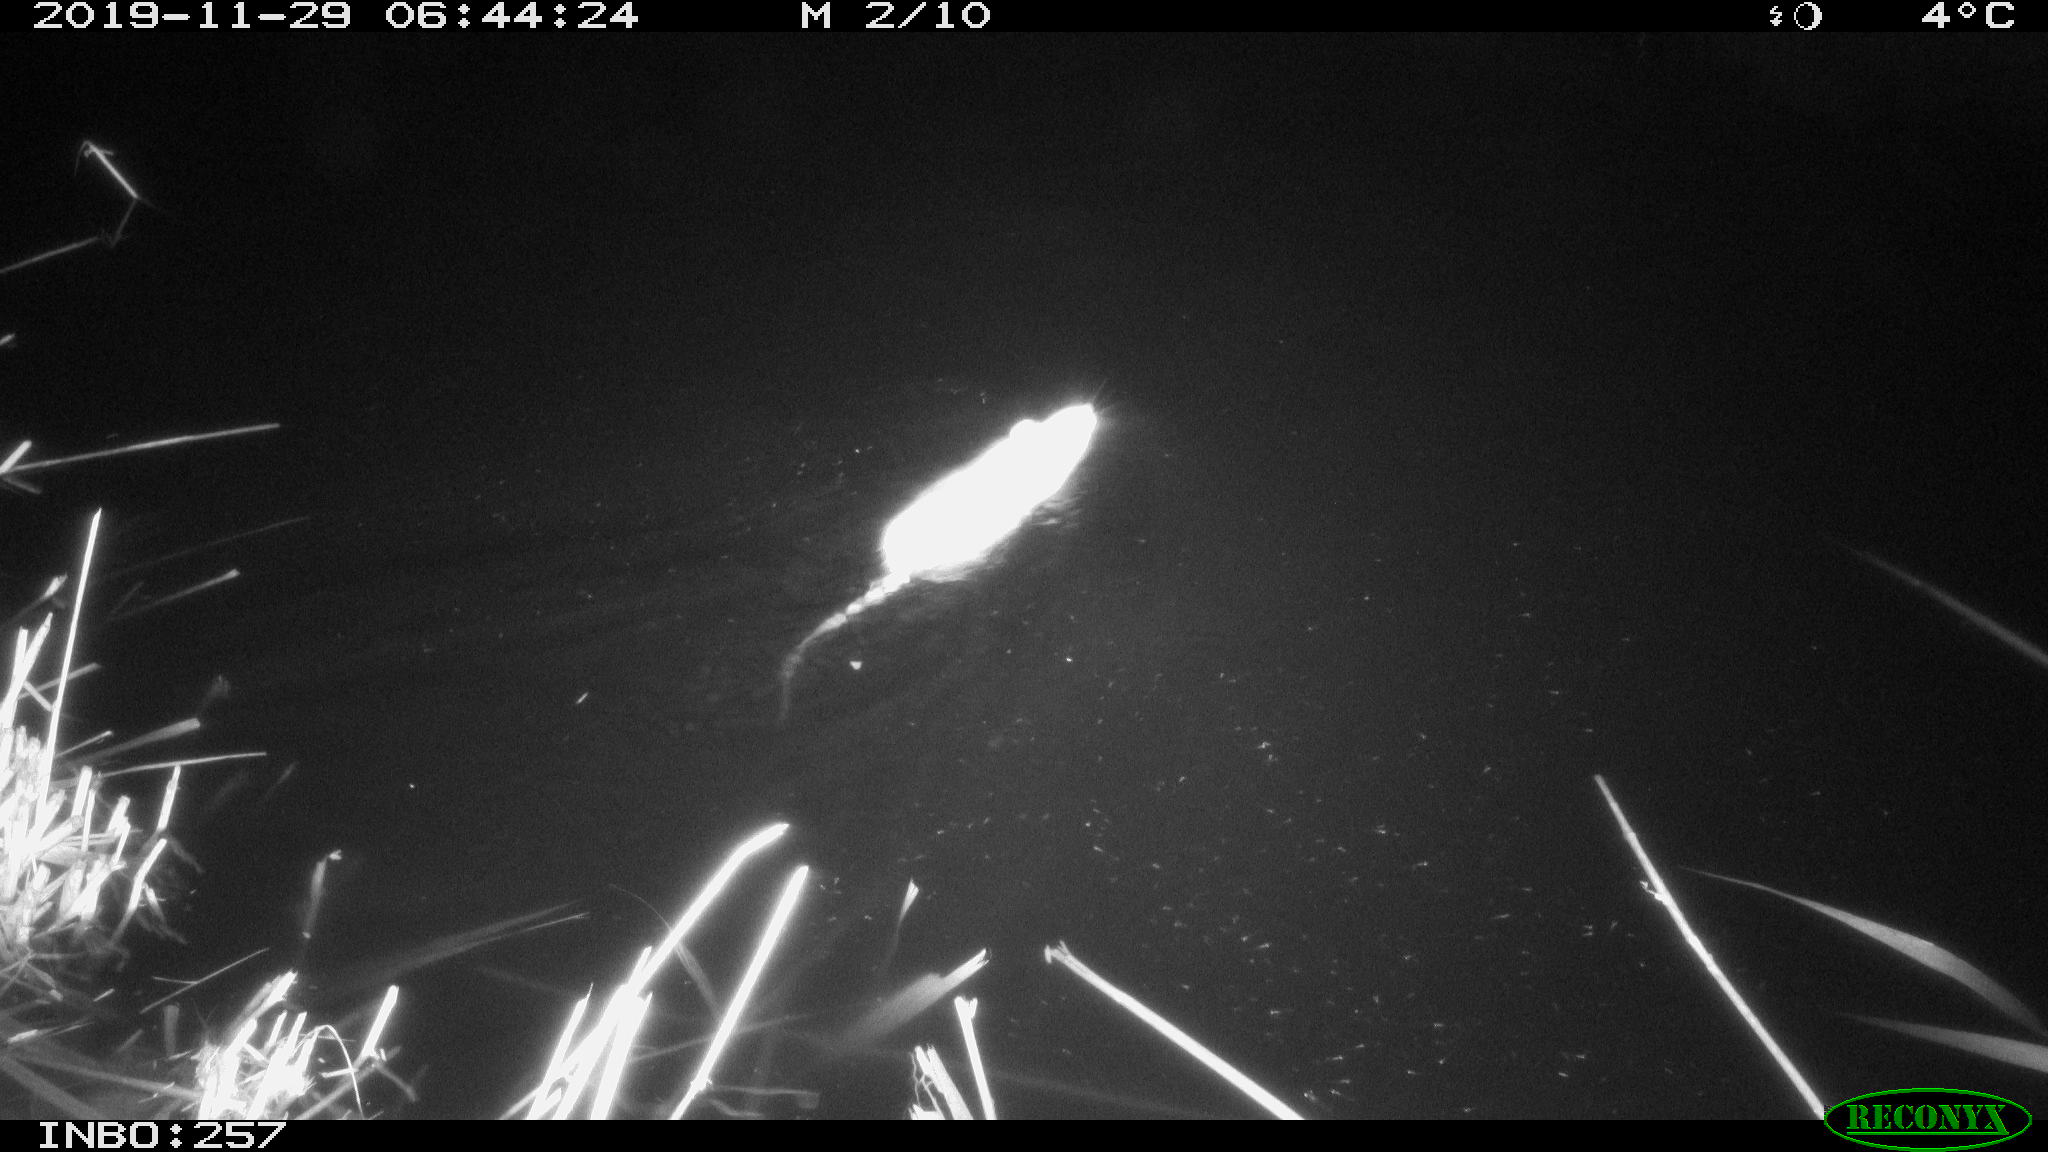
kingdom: Animalia
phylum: Chordata
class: Mammalia
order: Rodentia
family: Muridae
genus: Rattus
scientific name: Rattus norvegicus
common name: Brown rat
